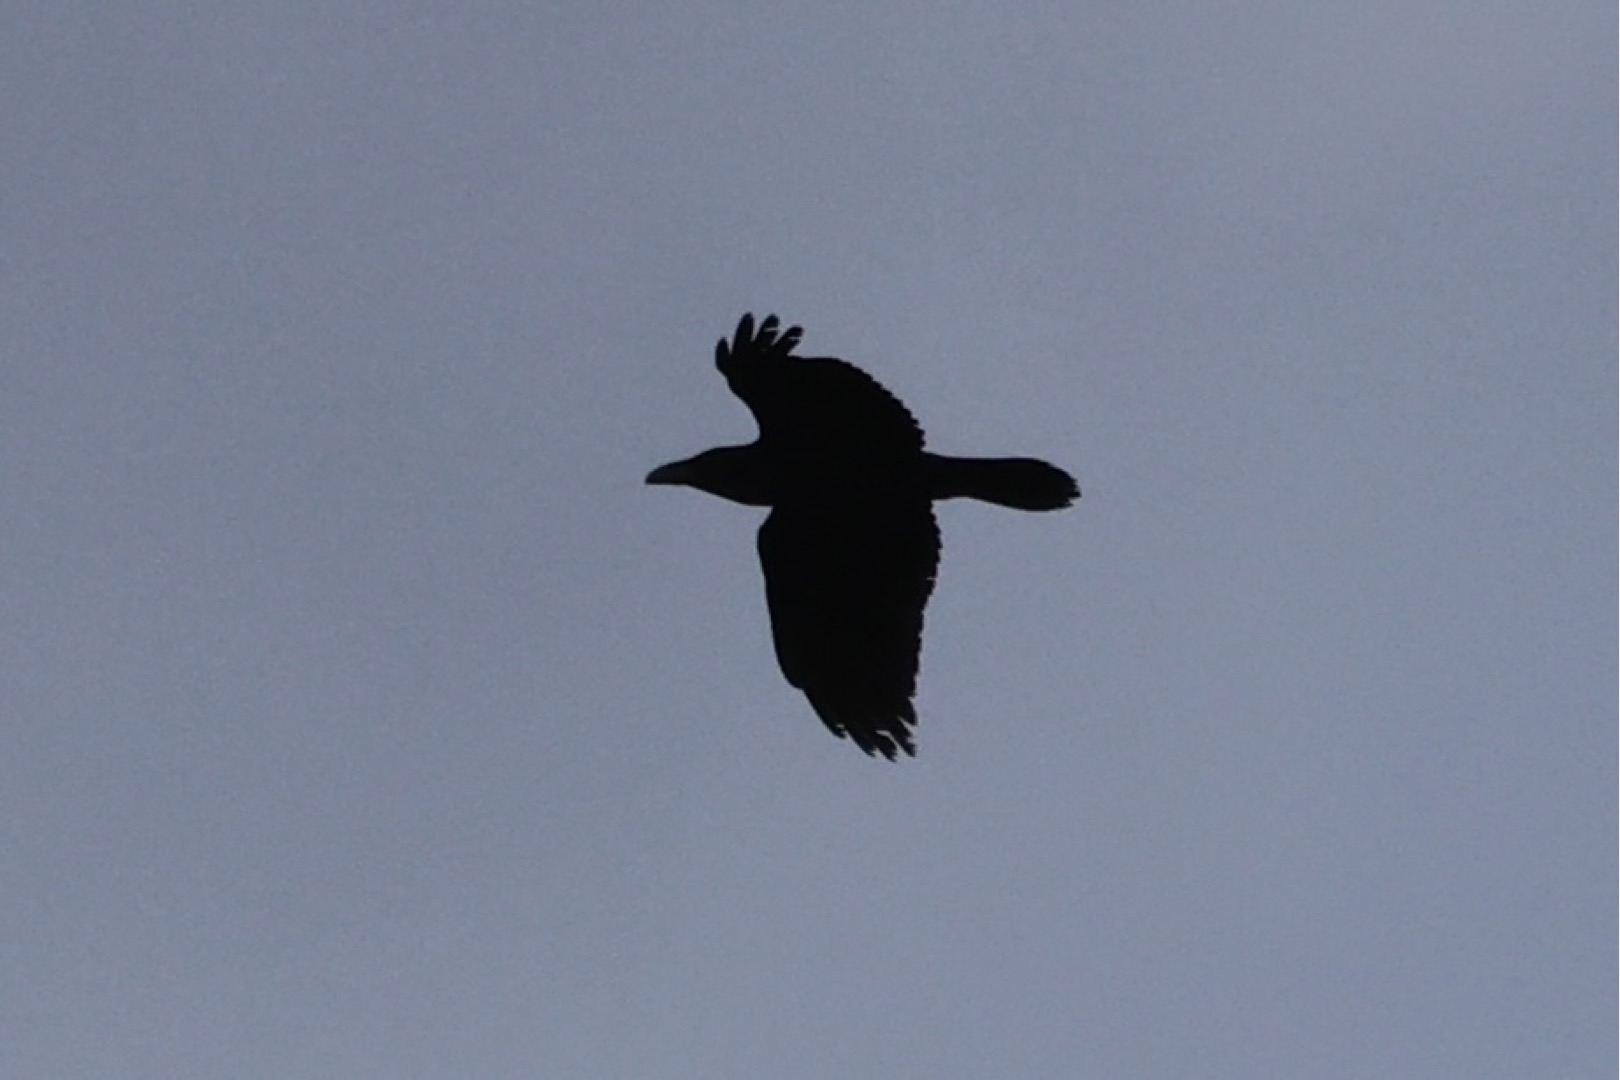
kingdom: Animalia
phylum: Chordata
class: Aves
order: Passeriformes
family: Corvidae
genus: Corvus
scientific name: Corvus corax
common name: Ravn
